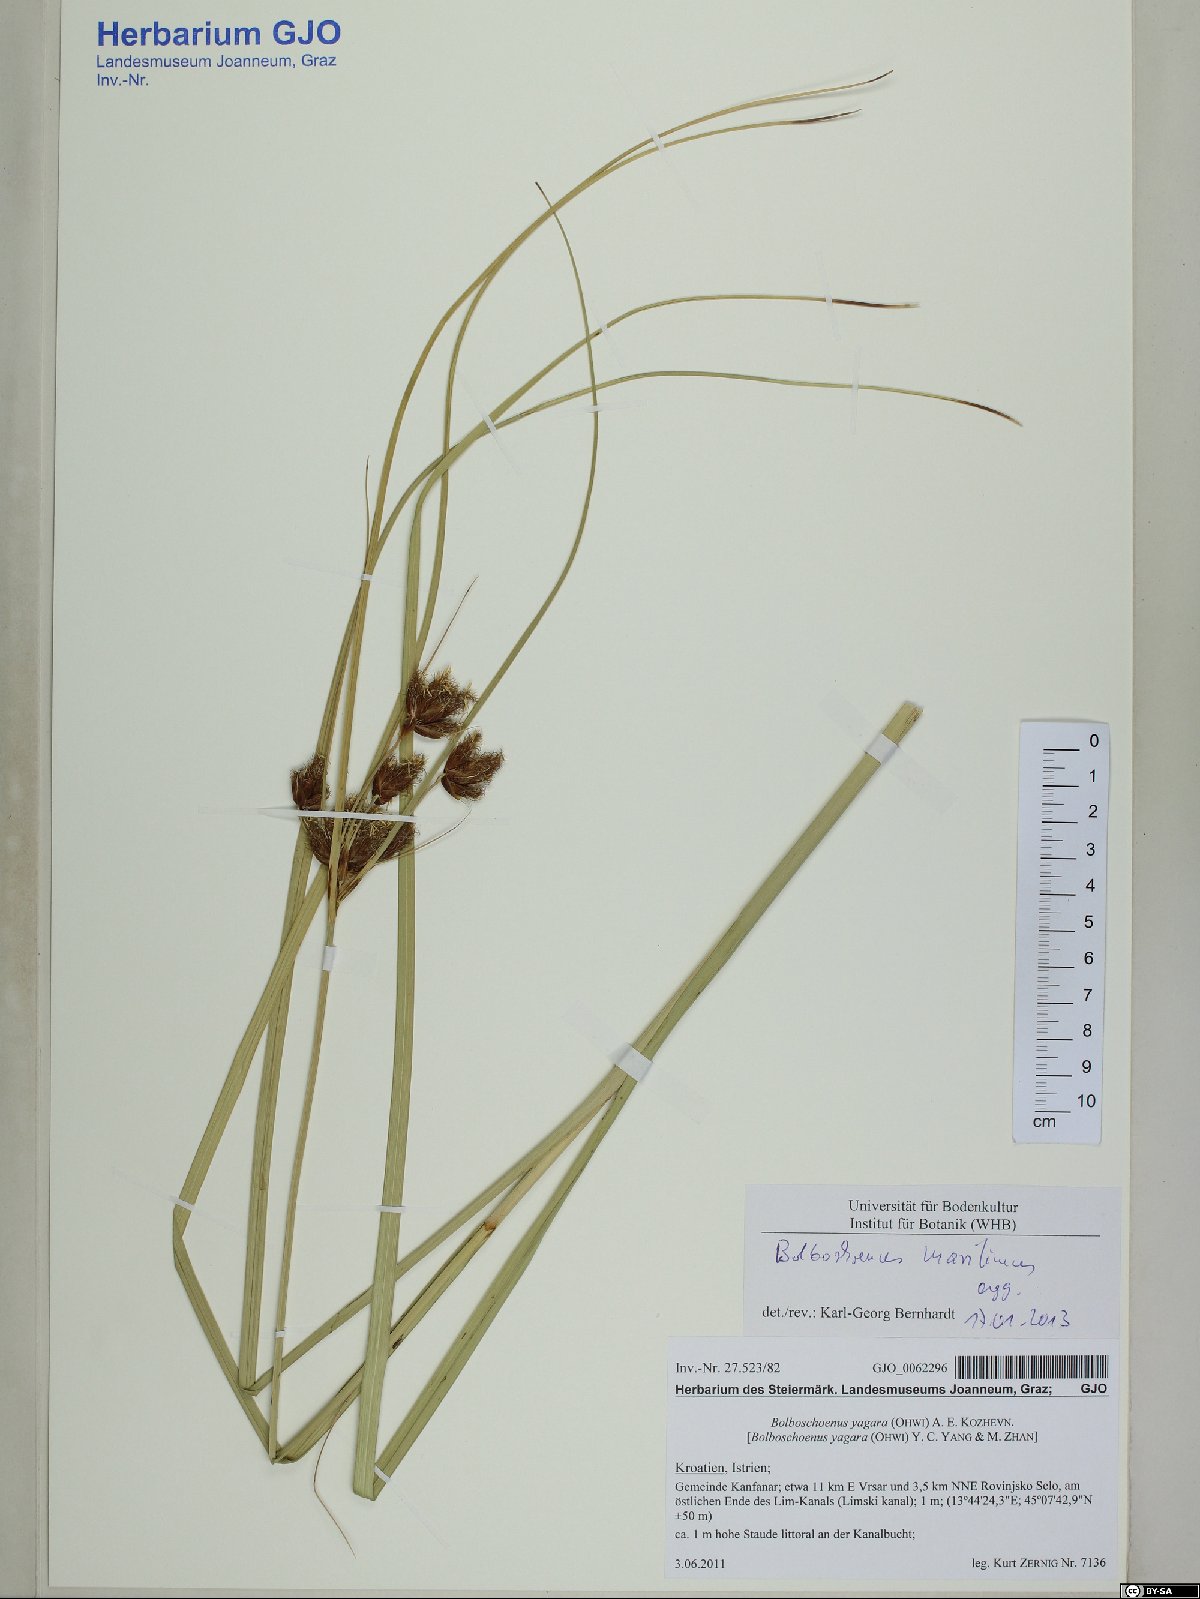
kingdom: Plantae
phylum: Tracheophyta
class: Liliopsida
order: Poales
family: Cyperaceae
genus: Bolboschoenus
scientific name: Bolboschoenus maritimus
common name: Sea club-rush
